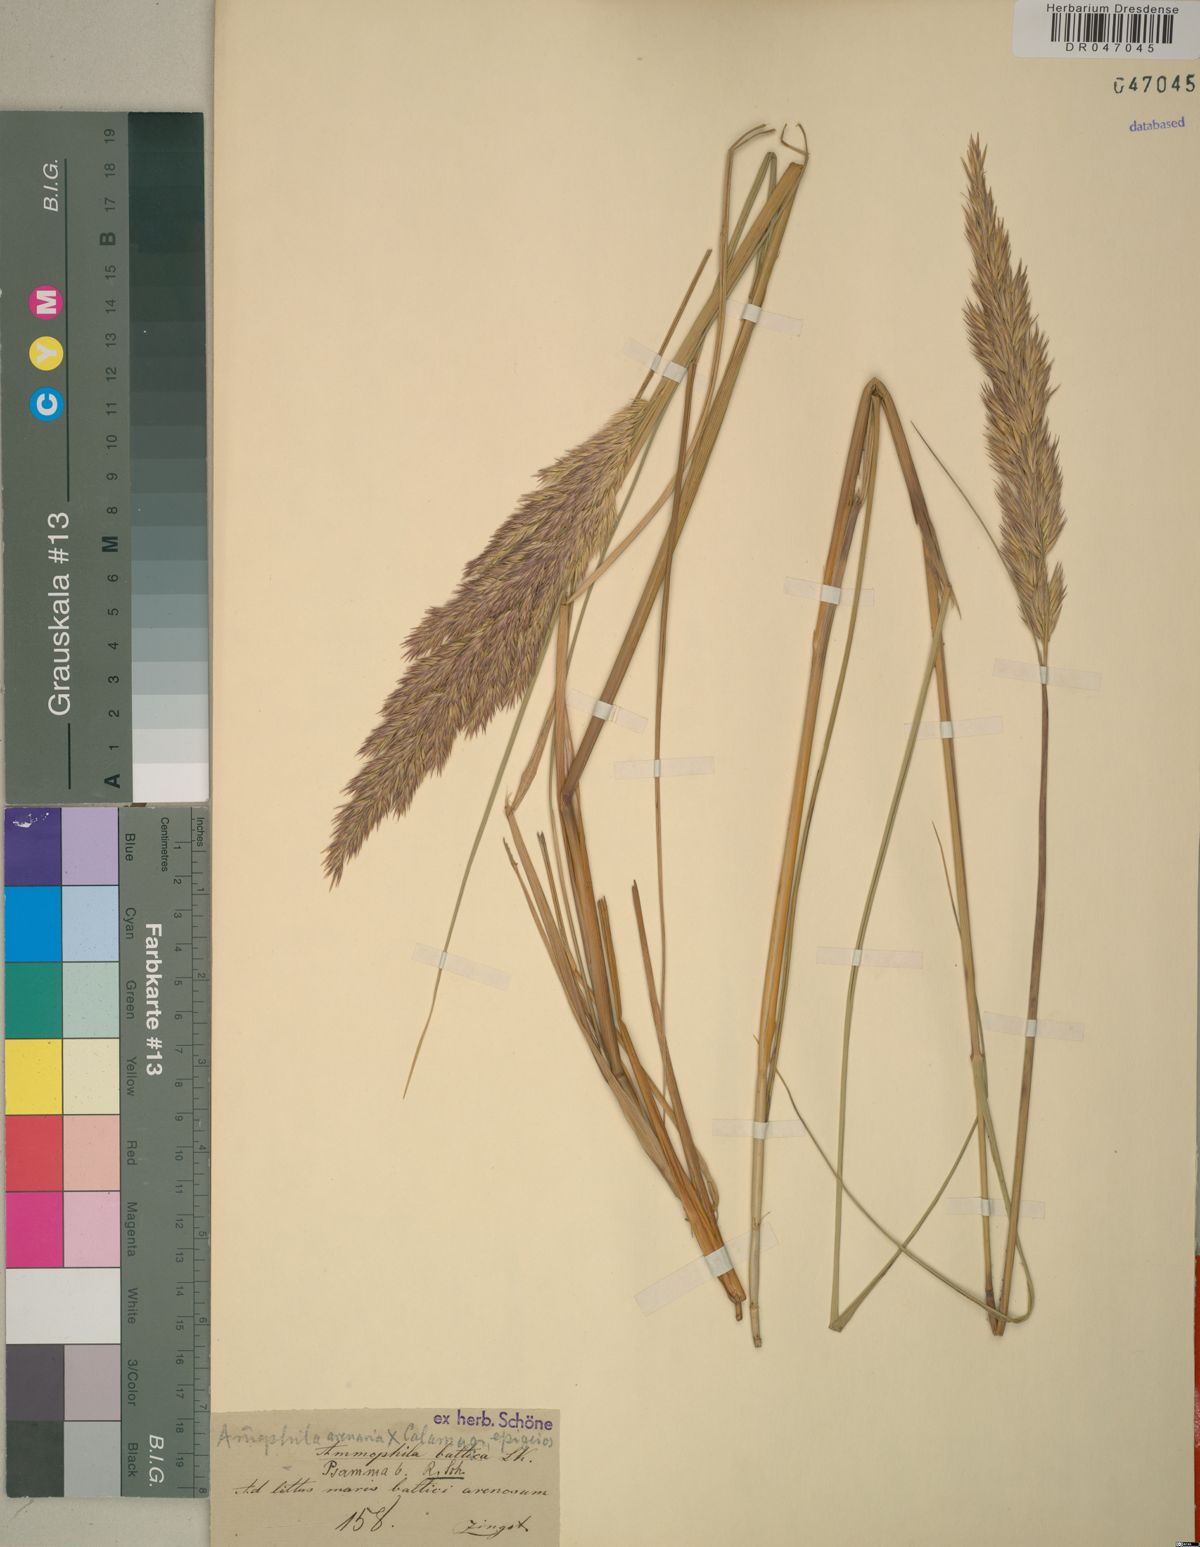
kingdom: Plantae
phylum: Tracheophyta
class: Liliopsida
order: Poales
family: Poaceae
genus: Calamagrostis
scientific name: Calamagrostis arenaria
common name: European beachgrass
